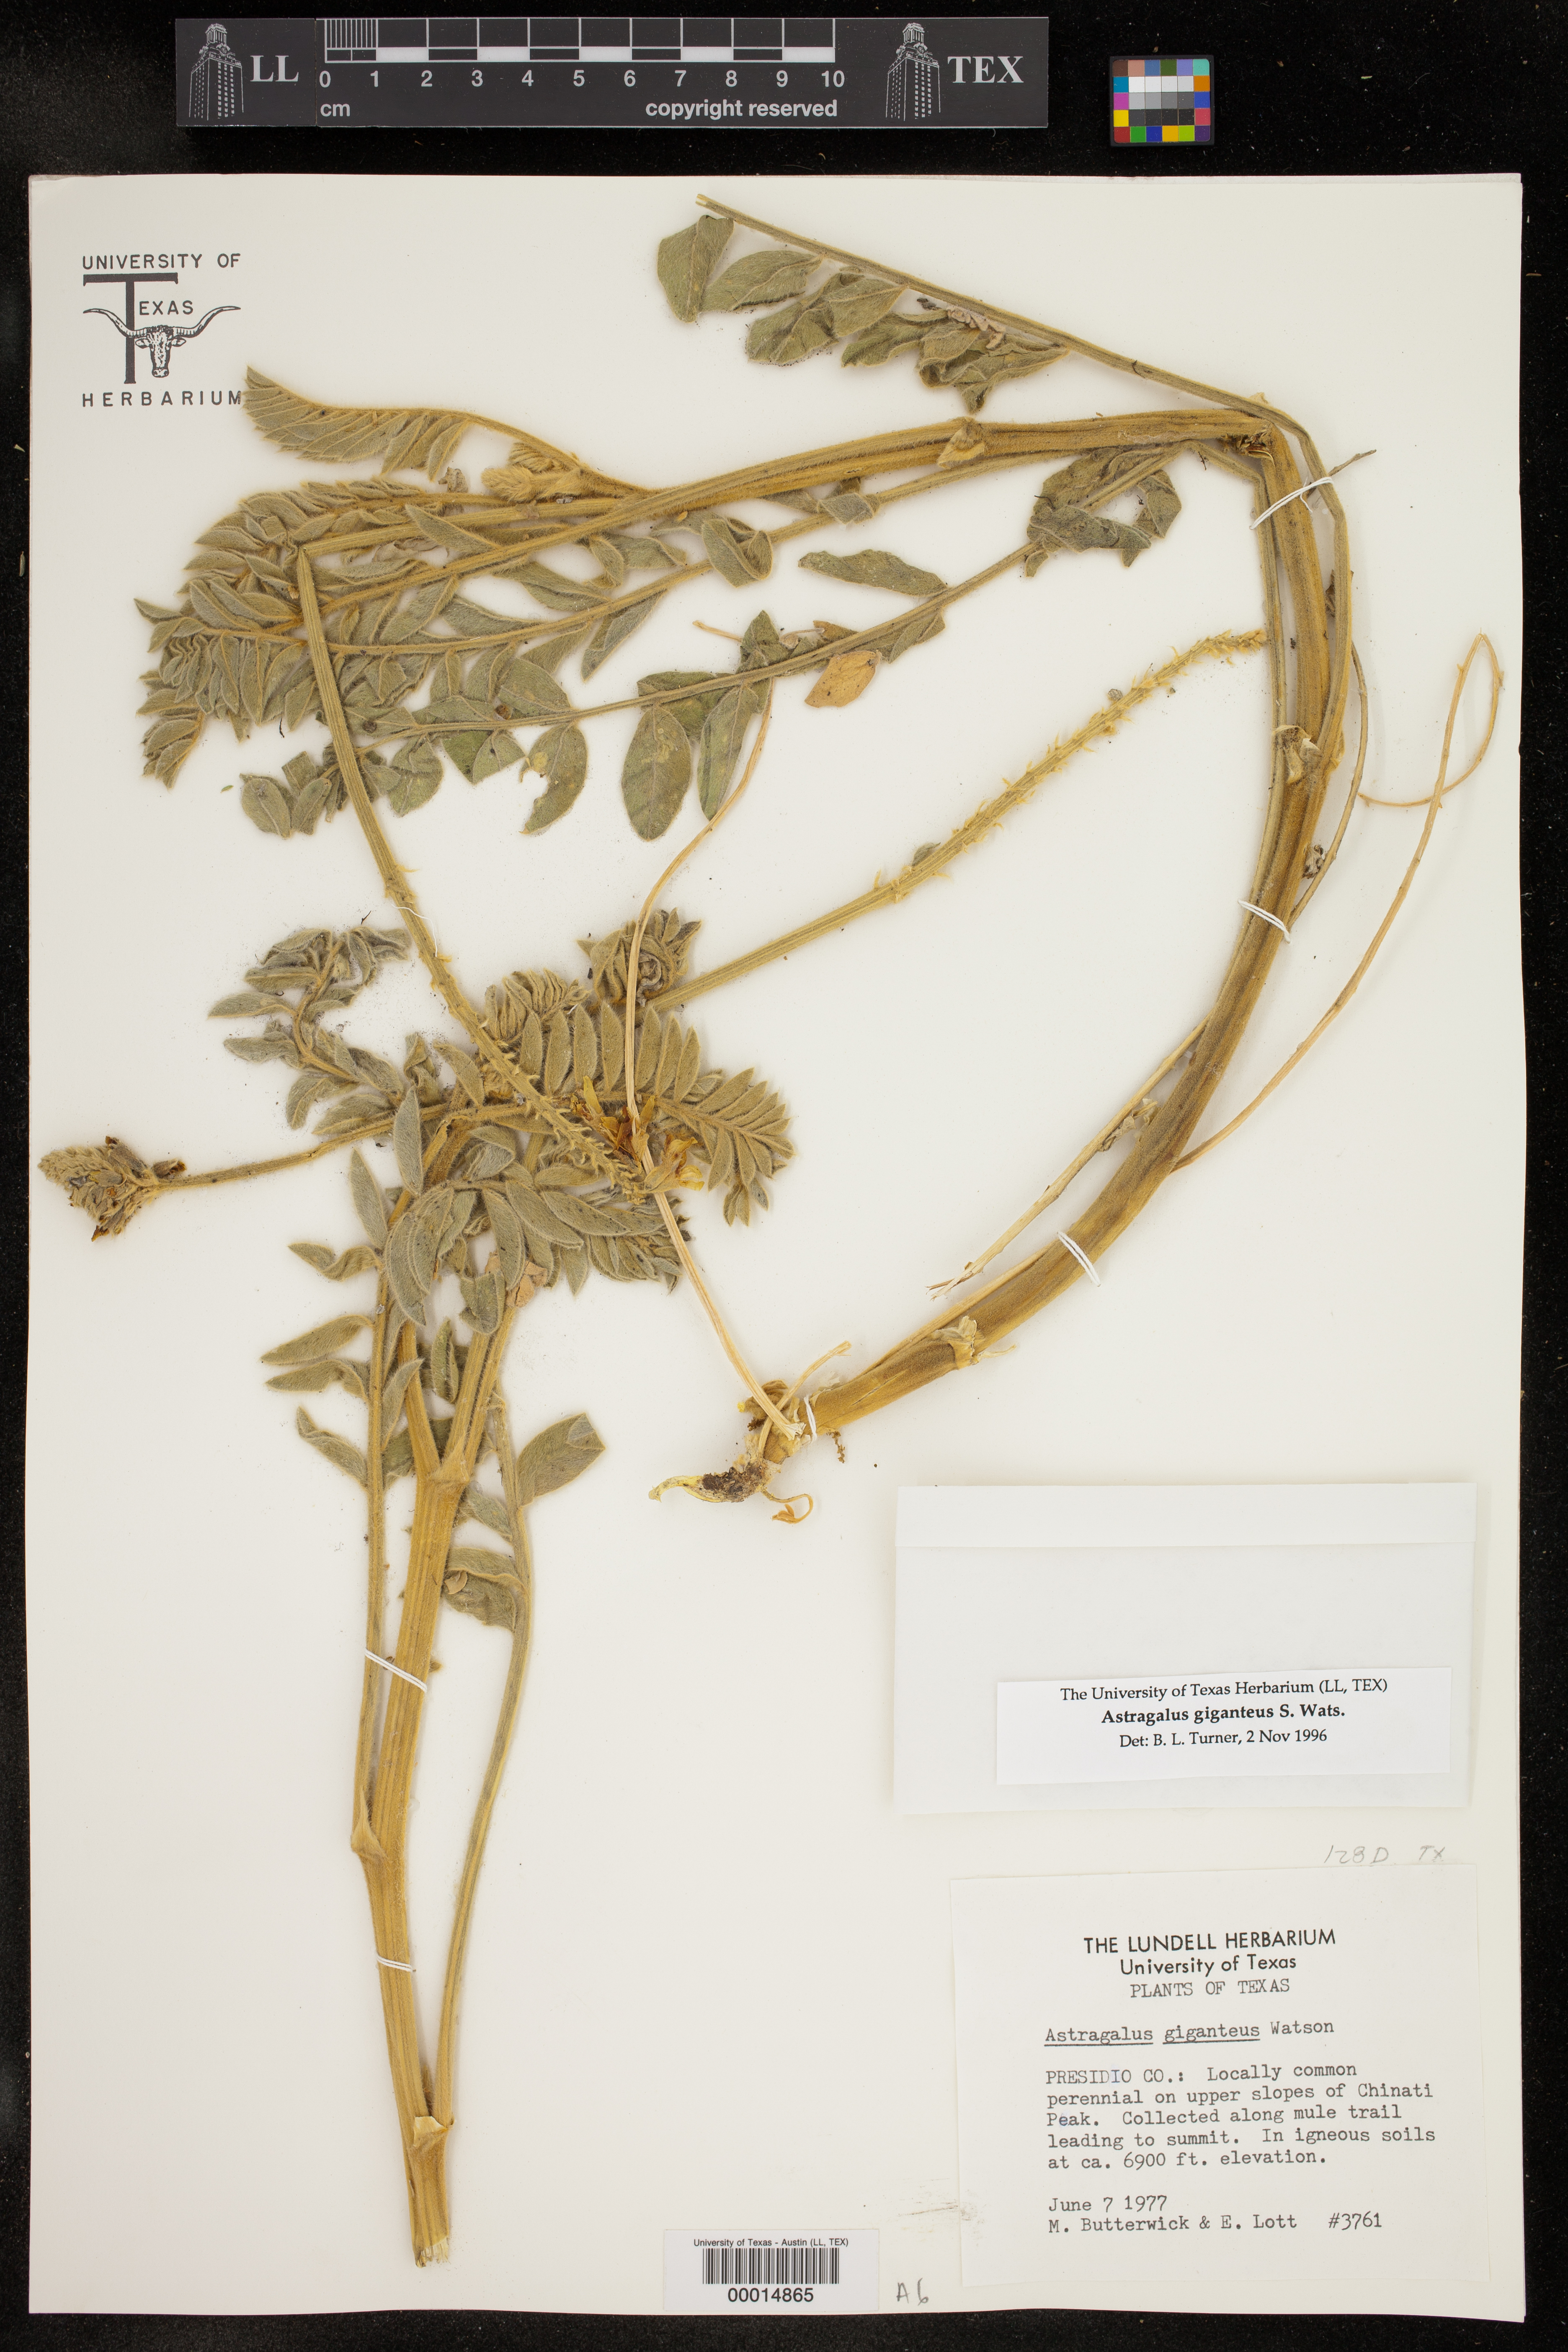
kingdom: Plantae
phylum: Tracheophyta
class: Magnoliopsida
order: Fabales
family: Fabaceae
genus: Astragalus
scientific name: Astragalus giganteus
